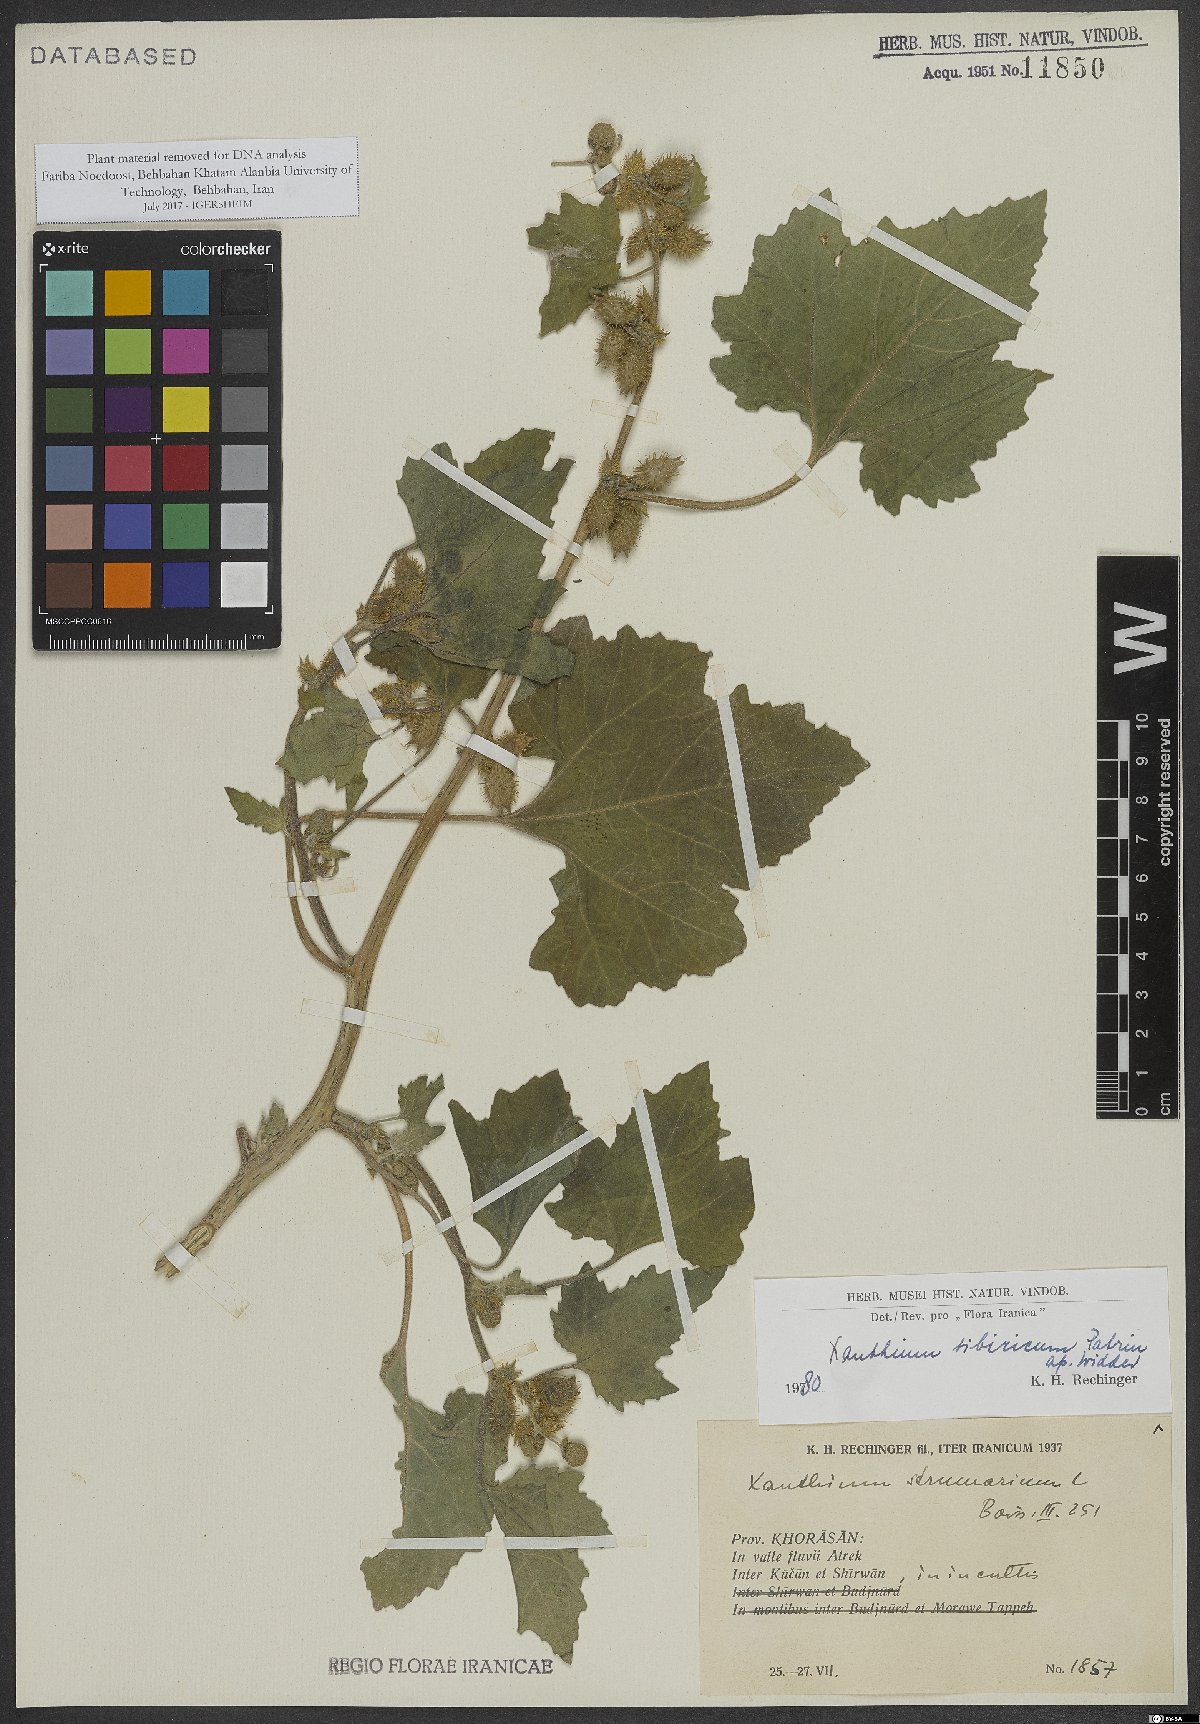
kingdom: Plantae
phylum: Tracheophyta
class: Magnoliopsida
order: Asterales
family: Asteraceae
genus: Xanthium
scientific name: Xanthium strumarium
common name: Rough cocklebur
